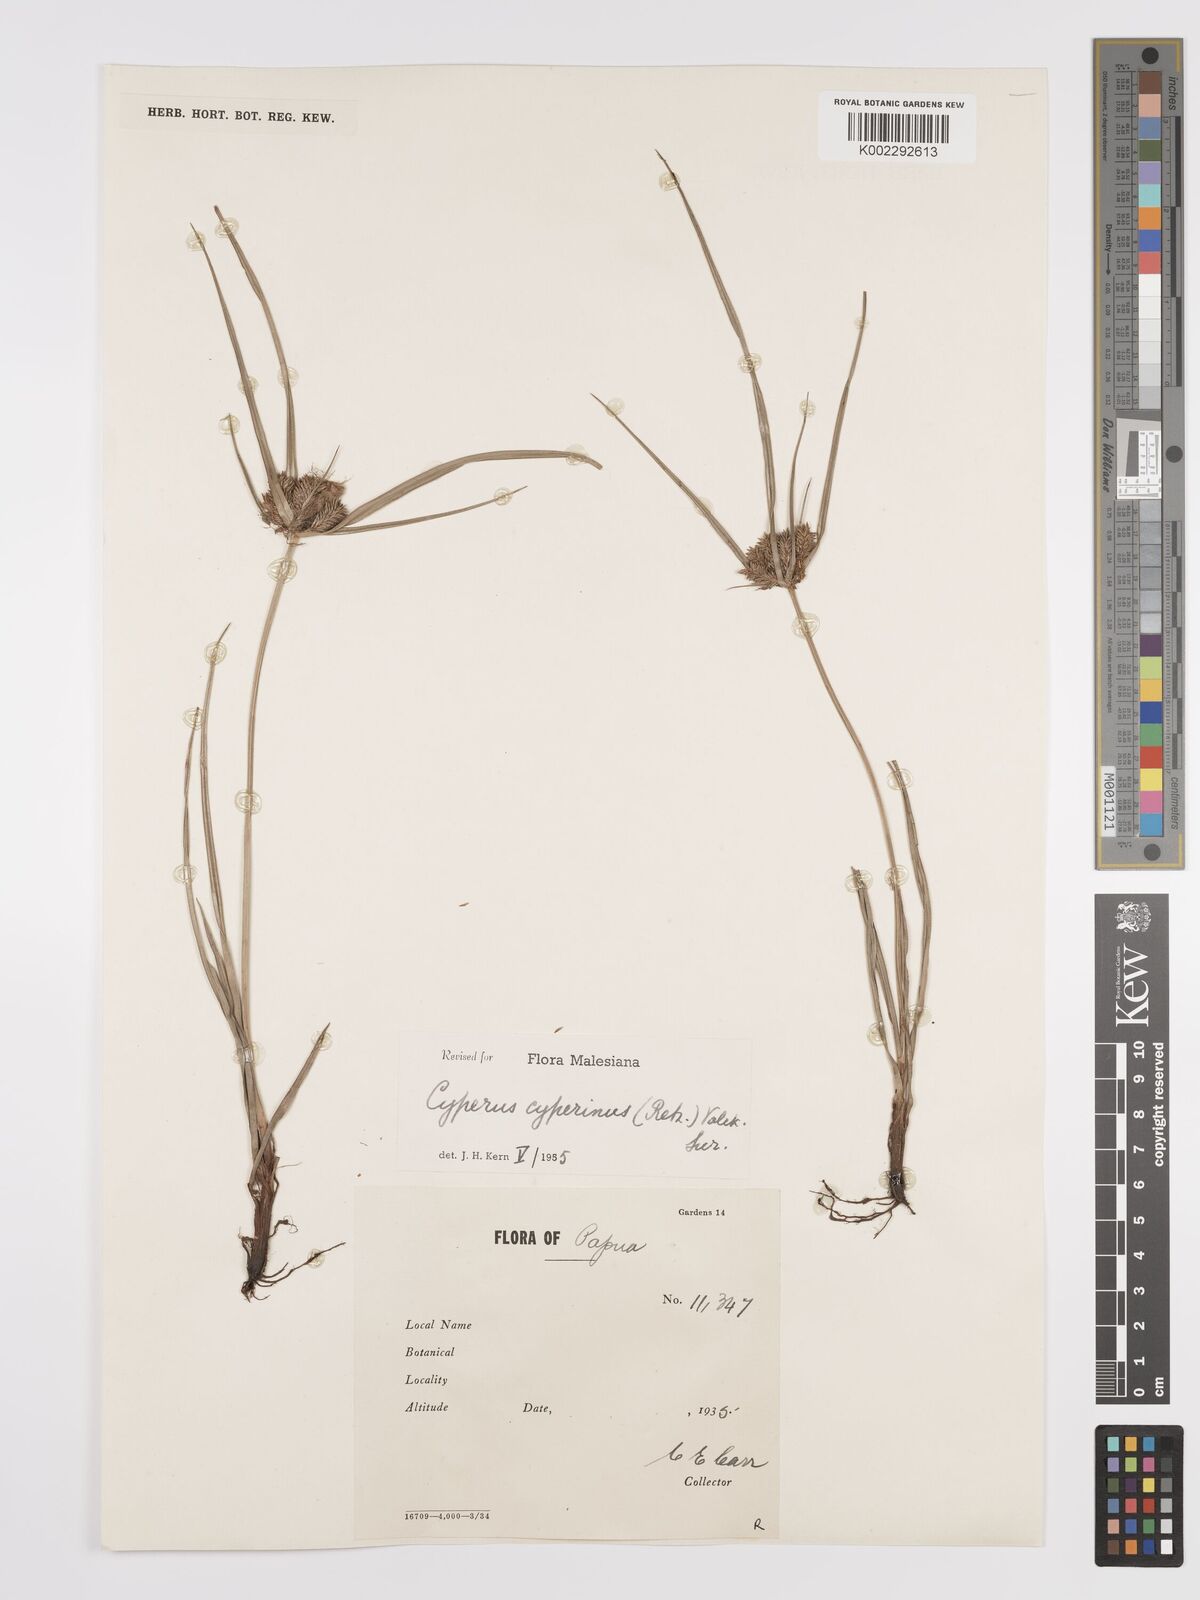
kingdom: Plantae
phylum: Tracheophyta
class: Liliopsida
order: Poales
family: Cyperaceae
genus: Cyperus
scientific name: Cyperus cyperinus
